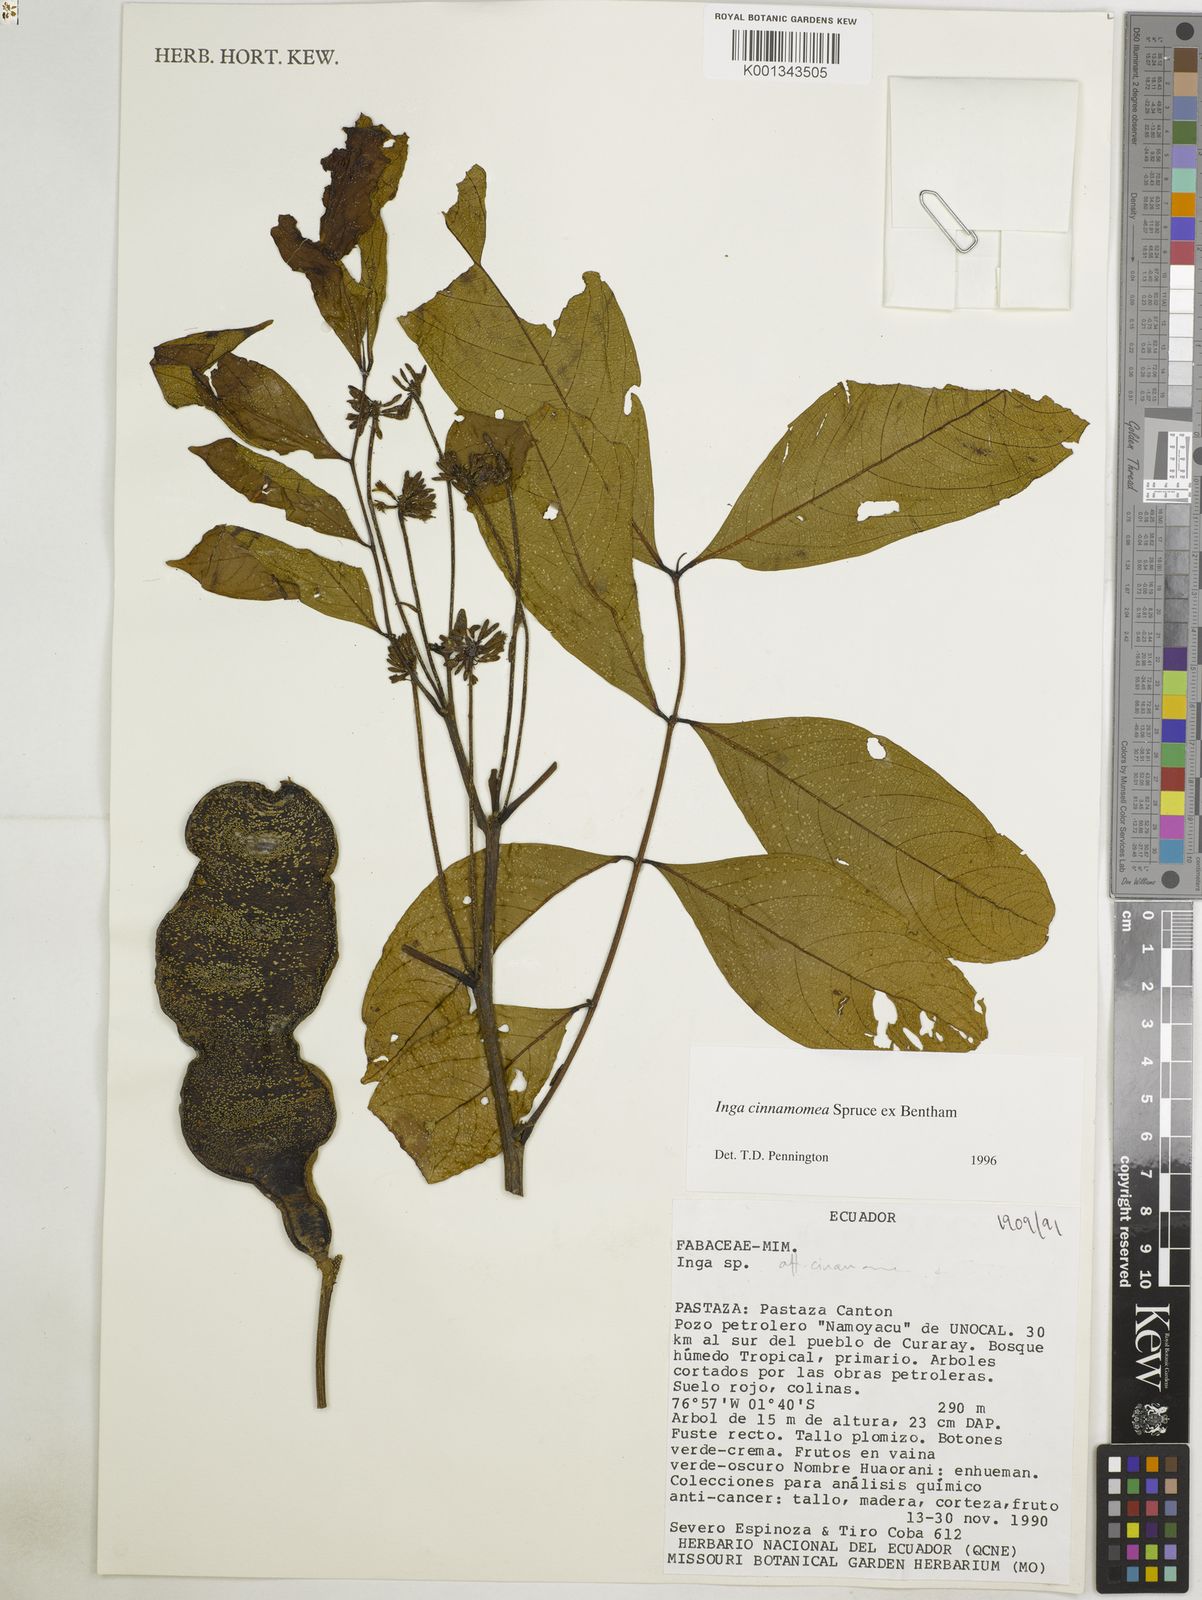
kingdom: Plantae
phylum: Tracheophyta
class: Magnoliopsida
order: Fabales
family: Fabaceae
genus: Inga
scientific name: Inga cinnamomea
